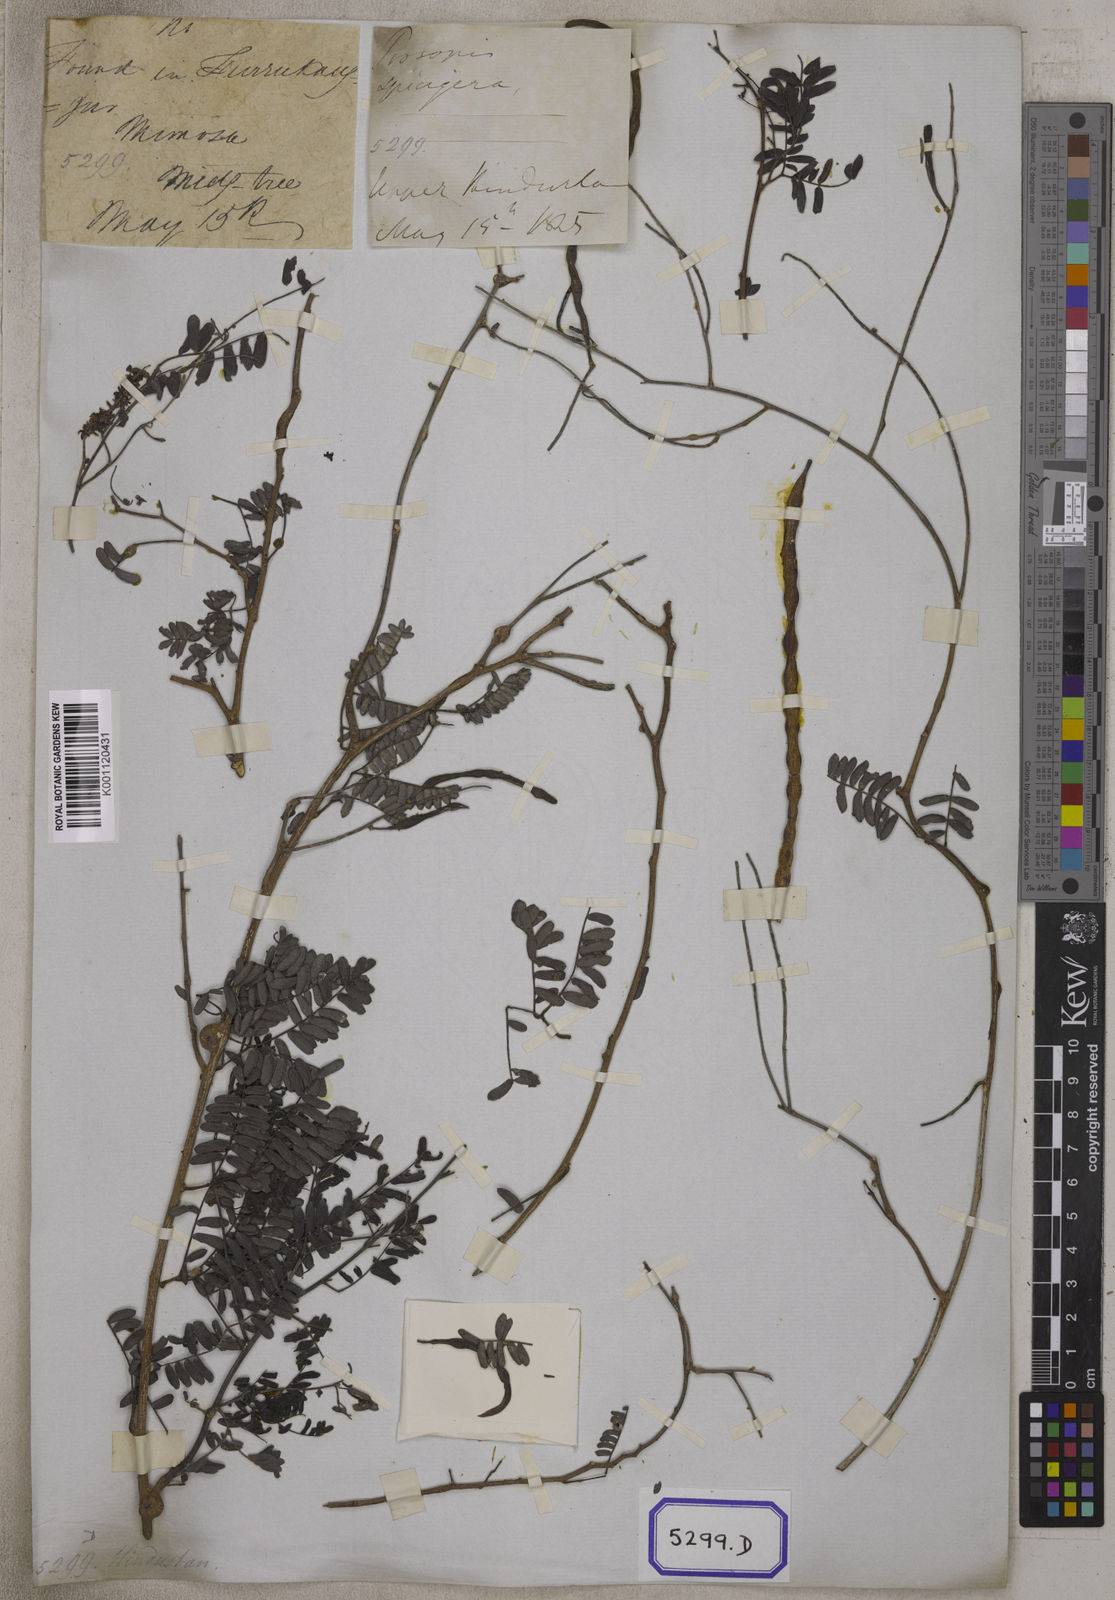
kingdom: Plantae
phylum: Tracheophyta
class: Magnoliopsida
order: Fabales
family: Fabaceae
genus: Prosopis
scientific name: Prosopis cineraria
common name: Jandi
